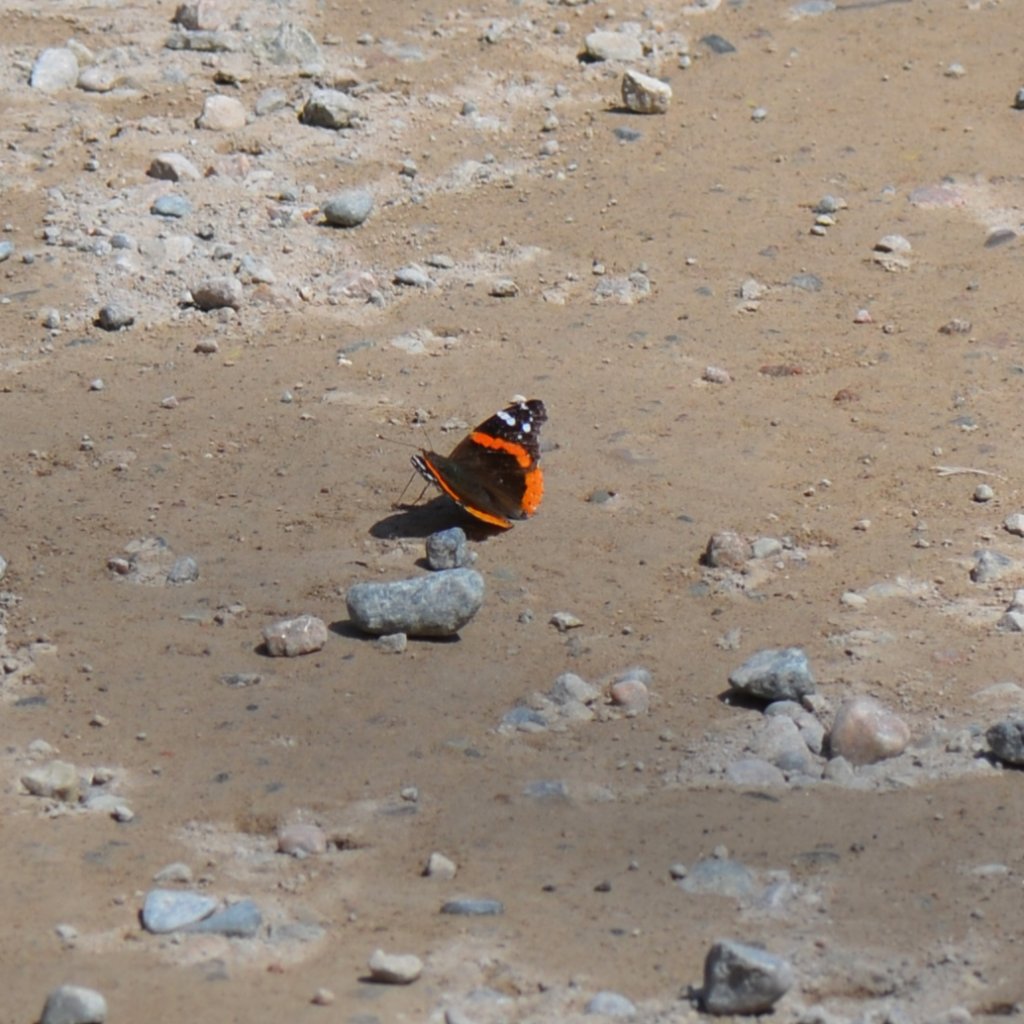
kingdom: Animalia
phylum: Arthropoda
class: Insecta
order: Lepidoptera
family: Nymphalidae
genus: Vanessa
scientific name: Vanessa atalanta
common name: Red Admiral
